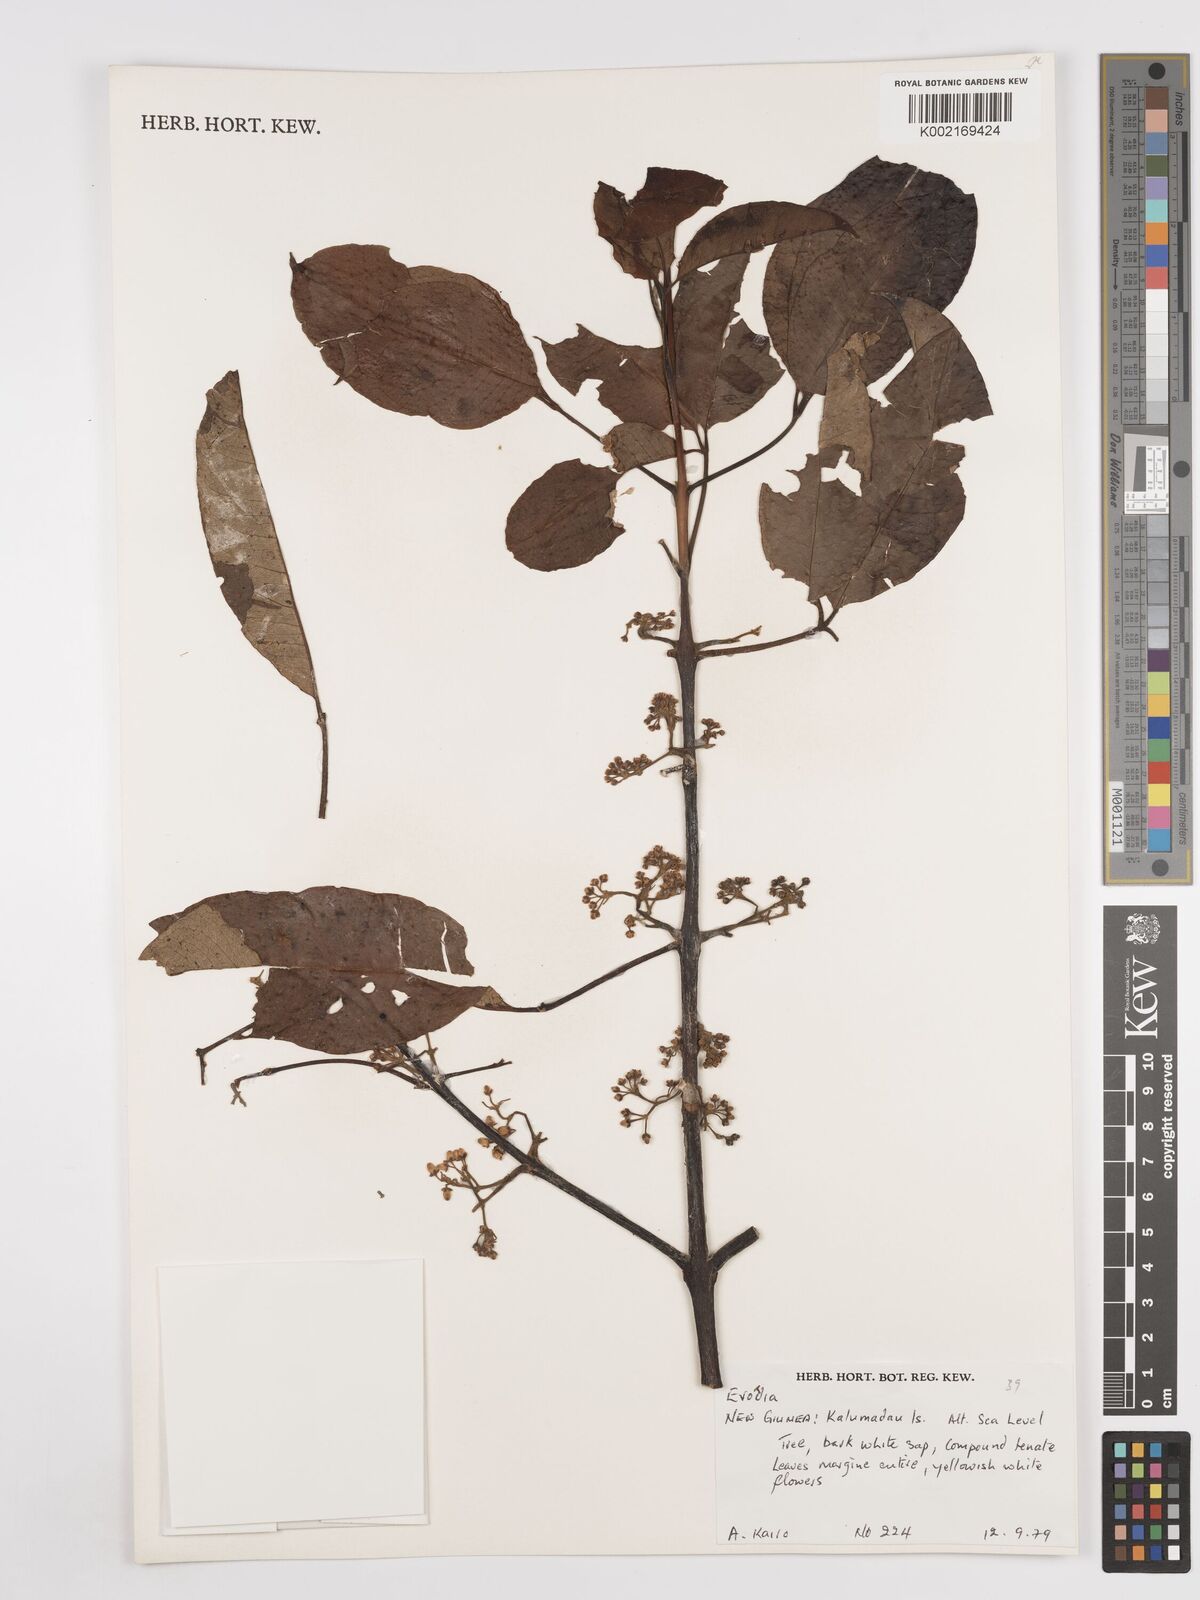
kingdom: Plantae
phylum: Tracheophyta
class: Magnoliopsida
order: Sapindales
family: Rutaceae
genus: Euodia
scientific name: Euodia
